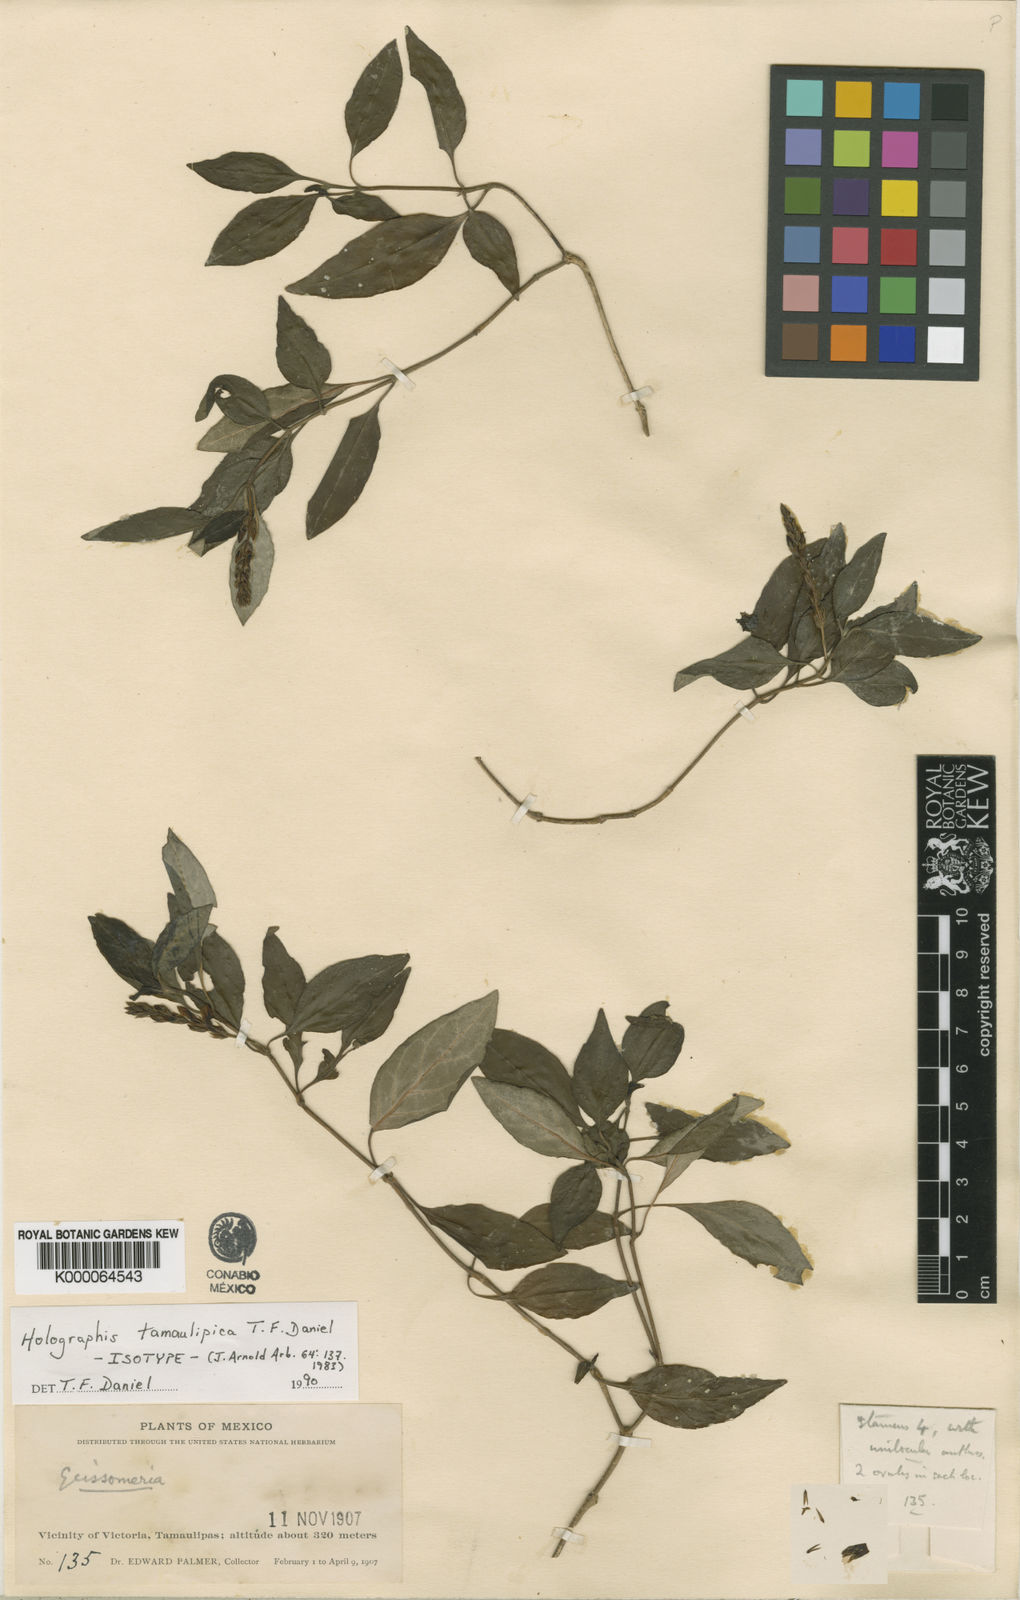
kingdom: Plantae
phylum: Tracheophyta
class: Magnoliopsida
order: Lamiales
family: Acanthaceae
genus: Holographis
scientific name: Holographis tamaulipica
